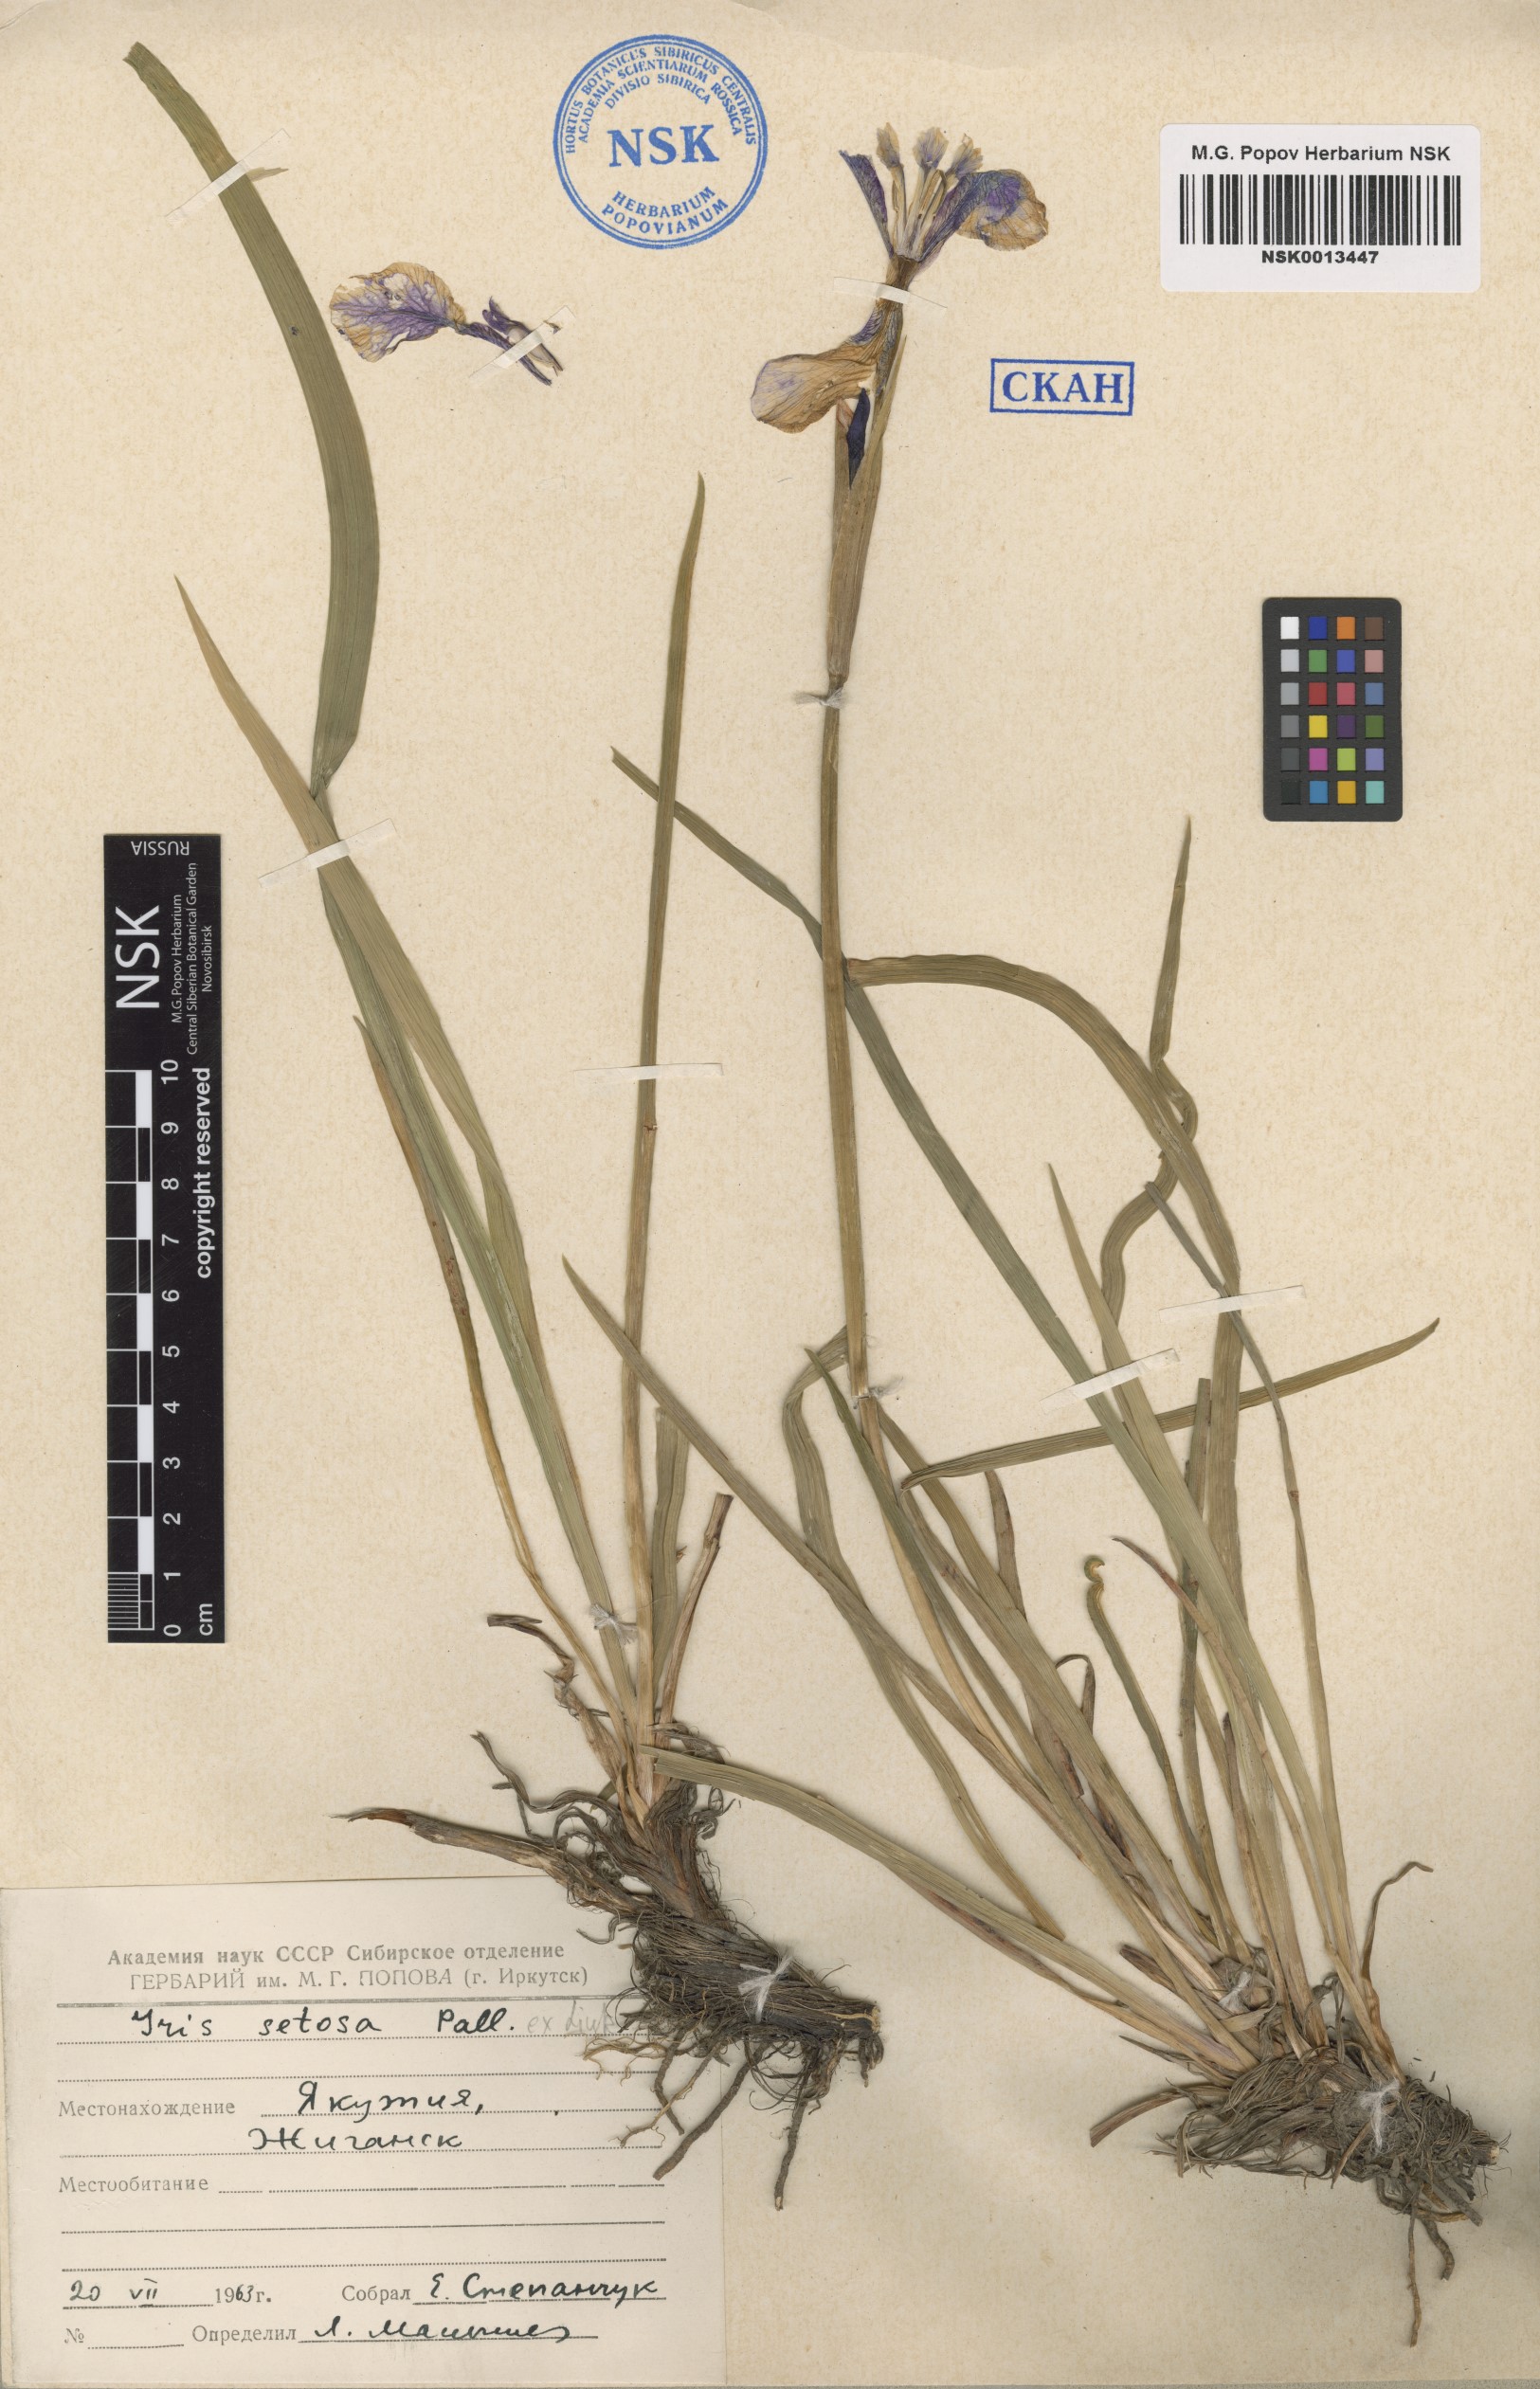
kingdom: Plantae
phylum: Tracheophyta
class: Liliopsida
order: Asparagales
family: Iridaceae
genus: Iris
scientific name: Iris setosa
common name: Arctic blue flag
